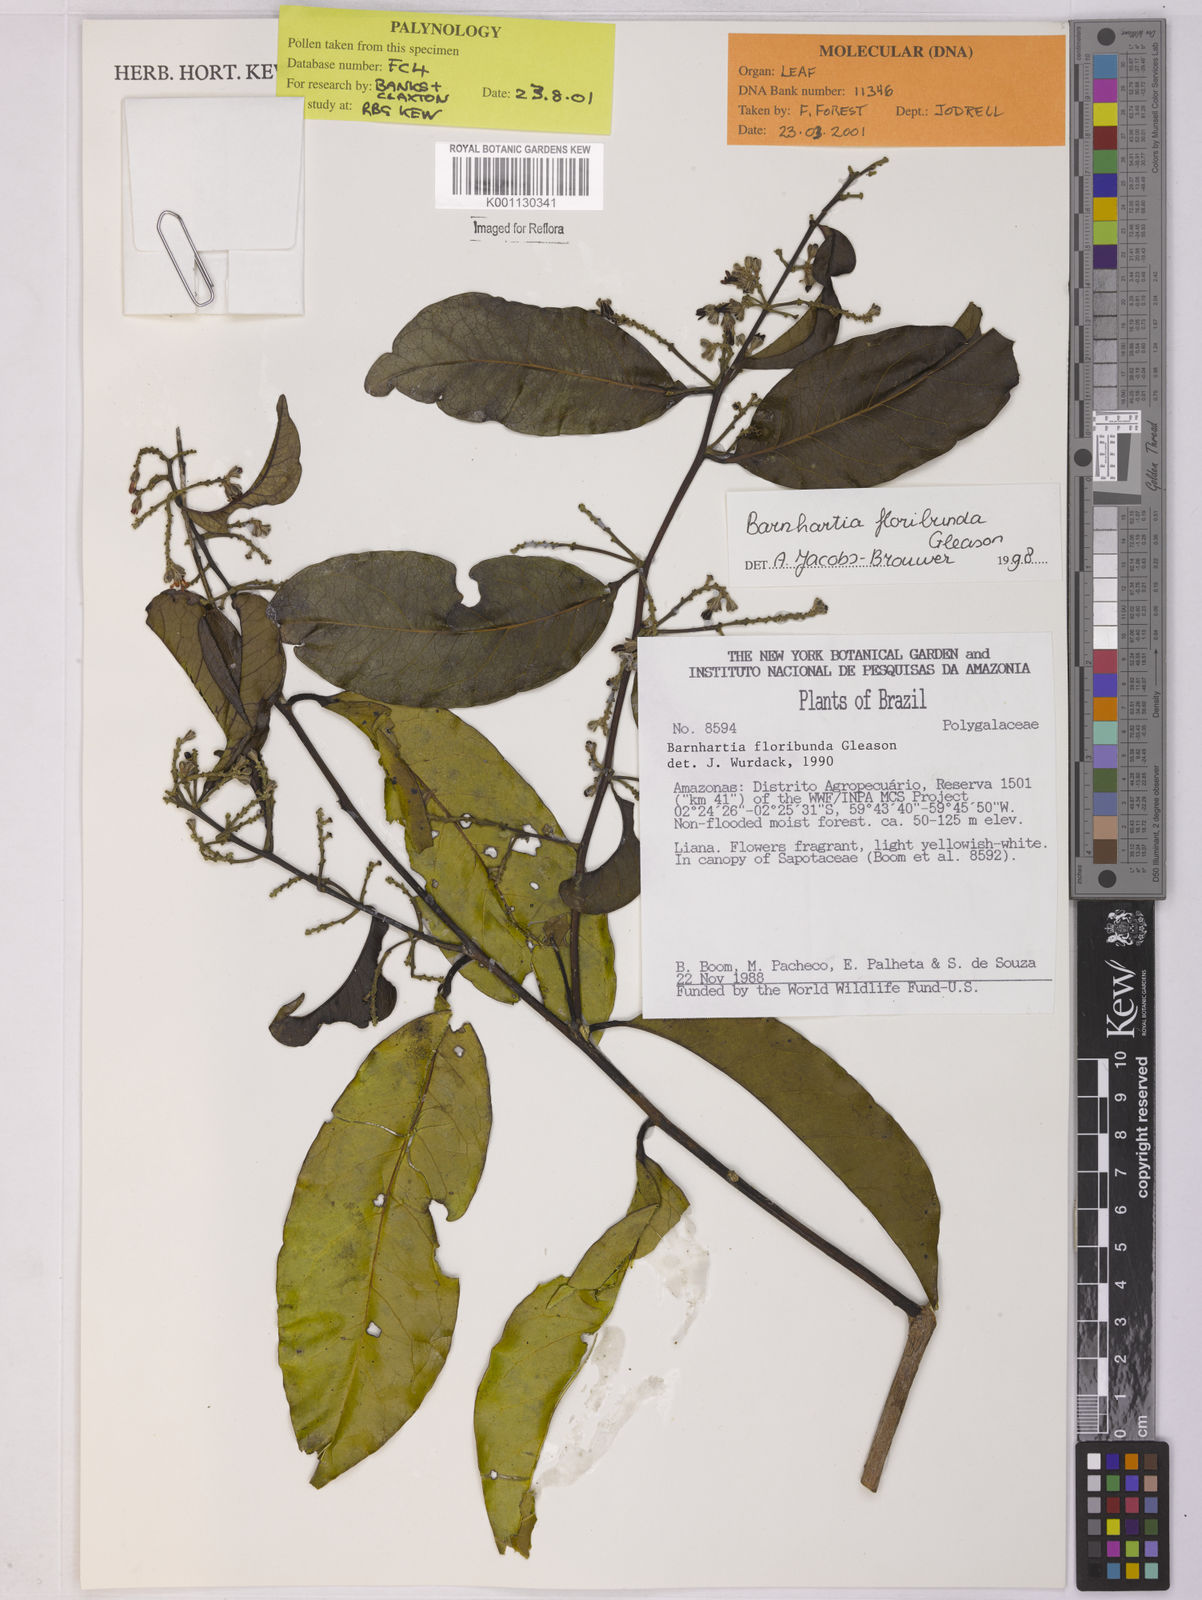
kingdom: Plantae
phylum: Tracheophyta
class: Magnoliopsida
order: Fabales
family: Polygalaceae
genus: Barnhartia
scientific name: Barnhartia floribunda
